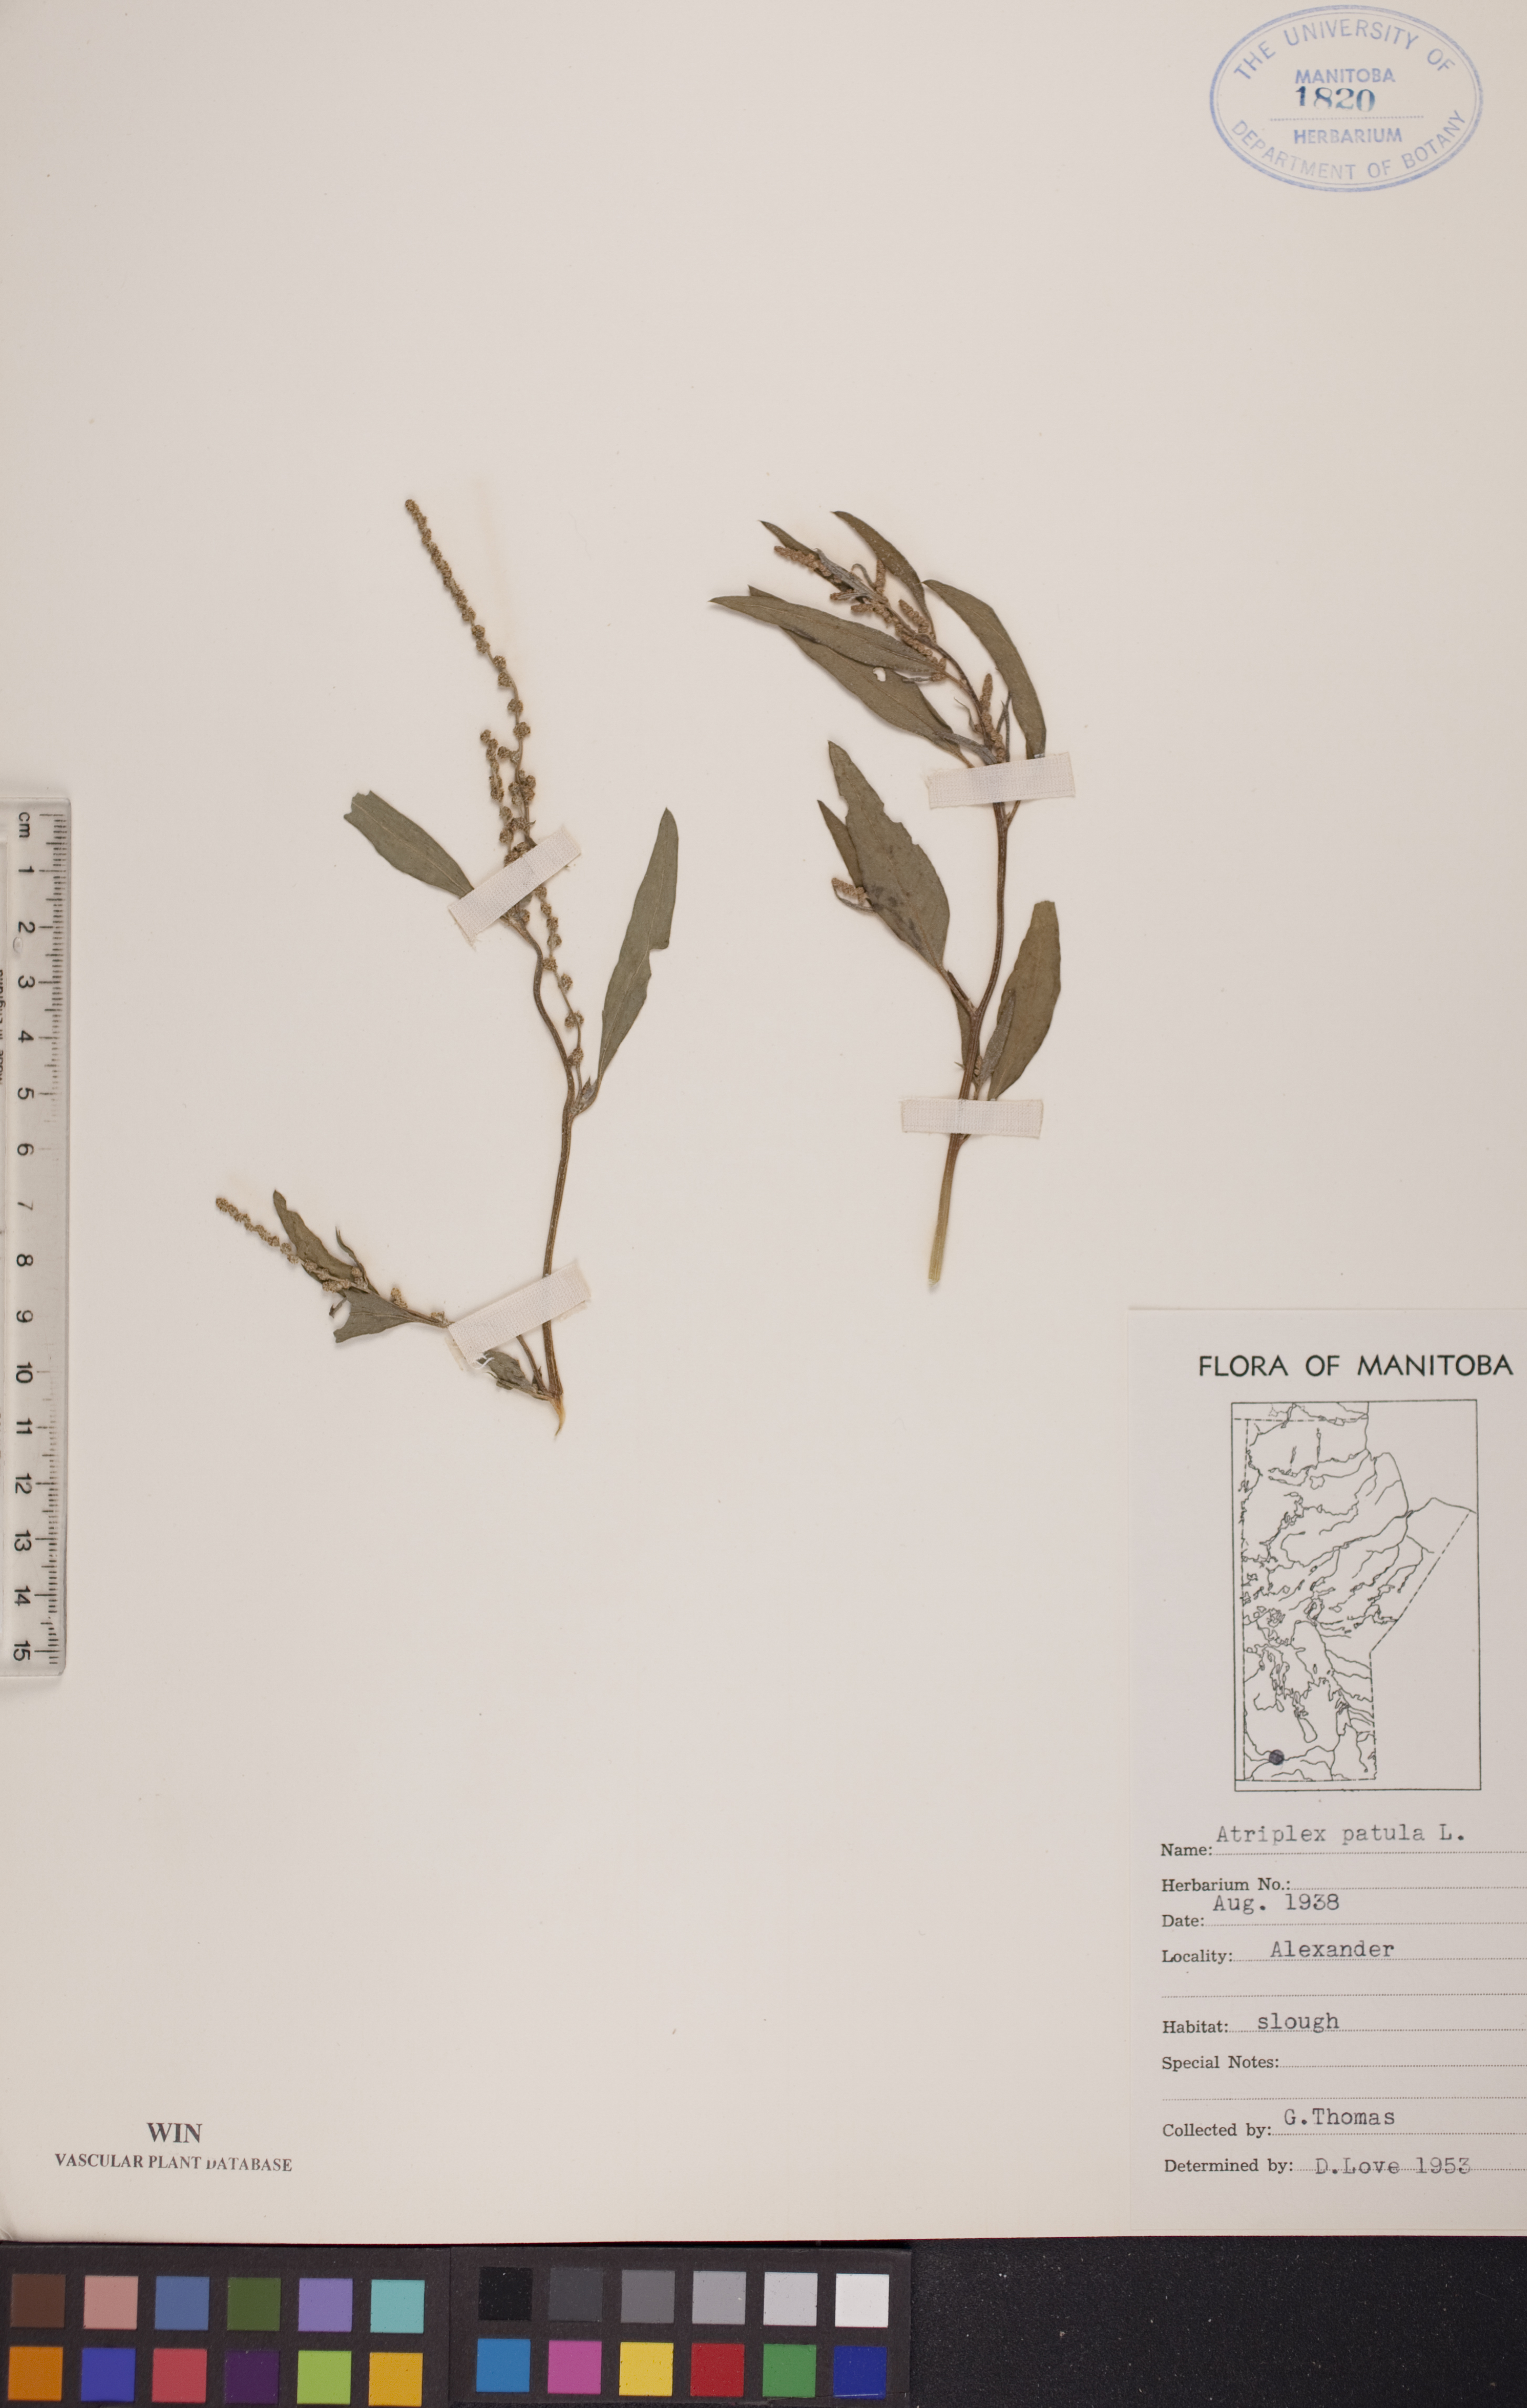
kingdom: Plantae
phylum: Tracheophyta
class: Magnoliopsida
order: Caryophyllales
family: Amaranthaceae
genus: Atriplex
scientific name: Atriplex patula
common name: Common orache
